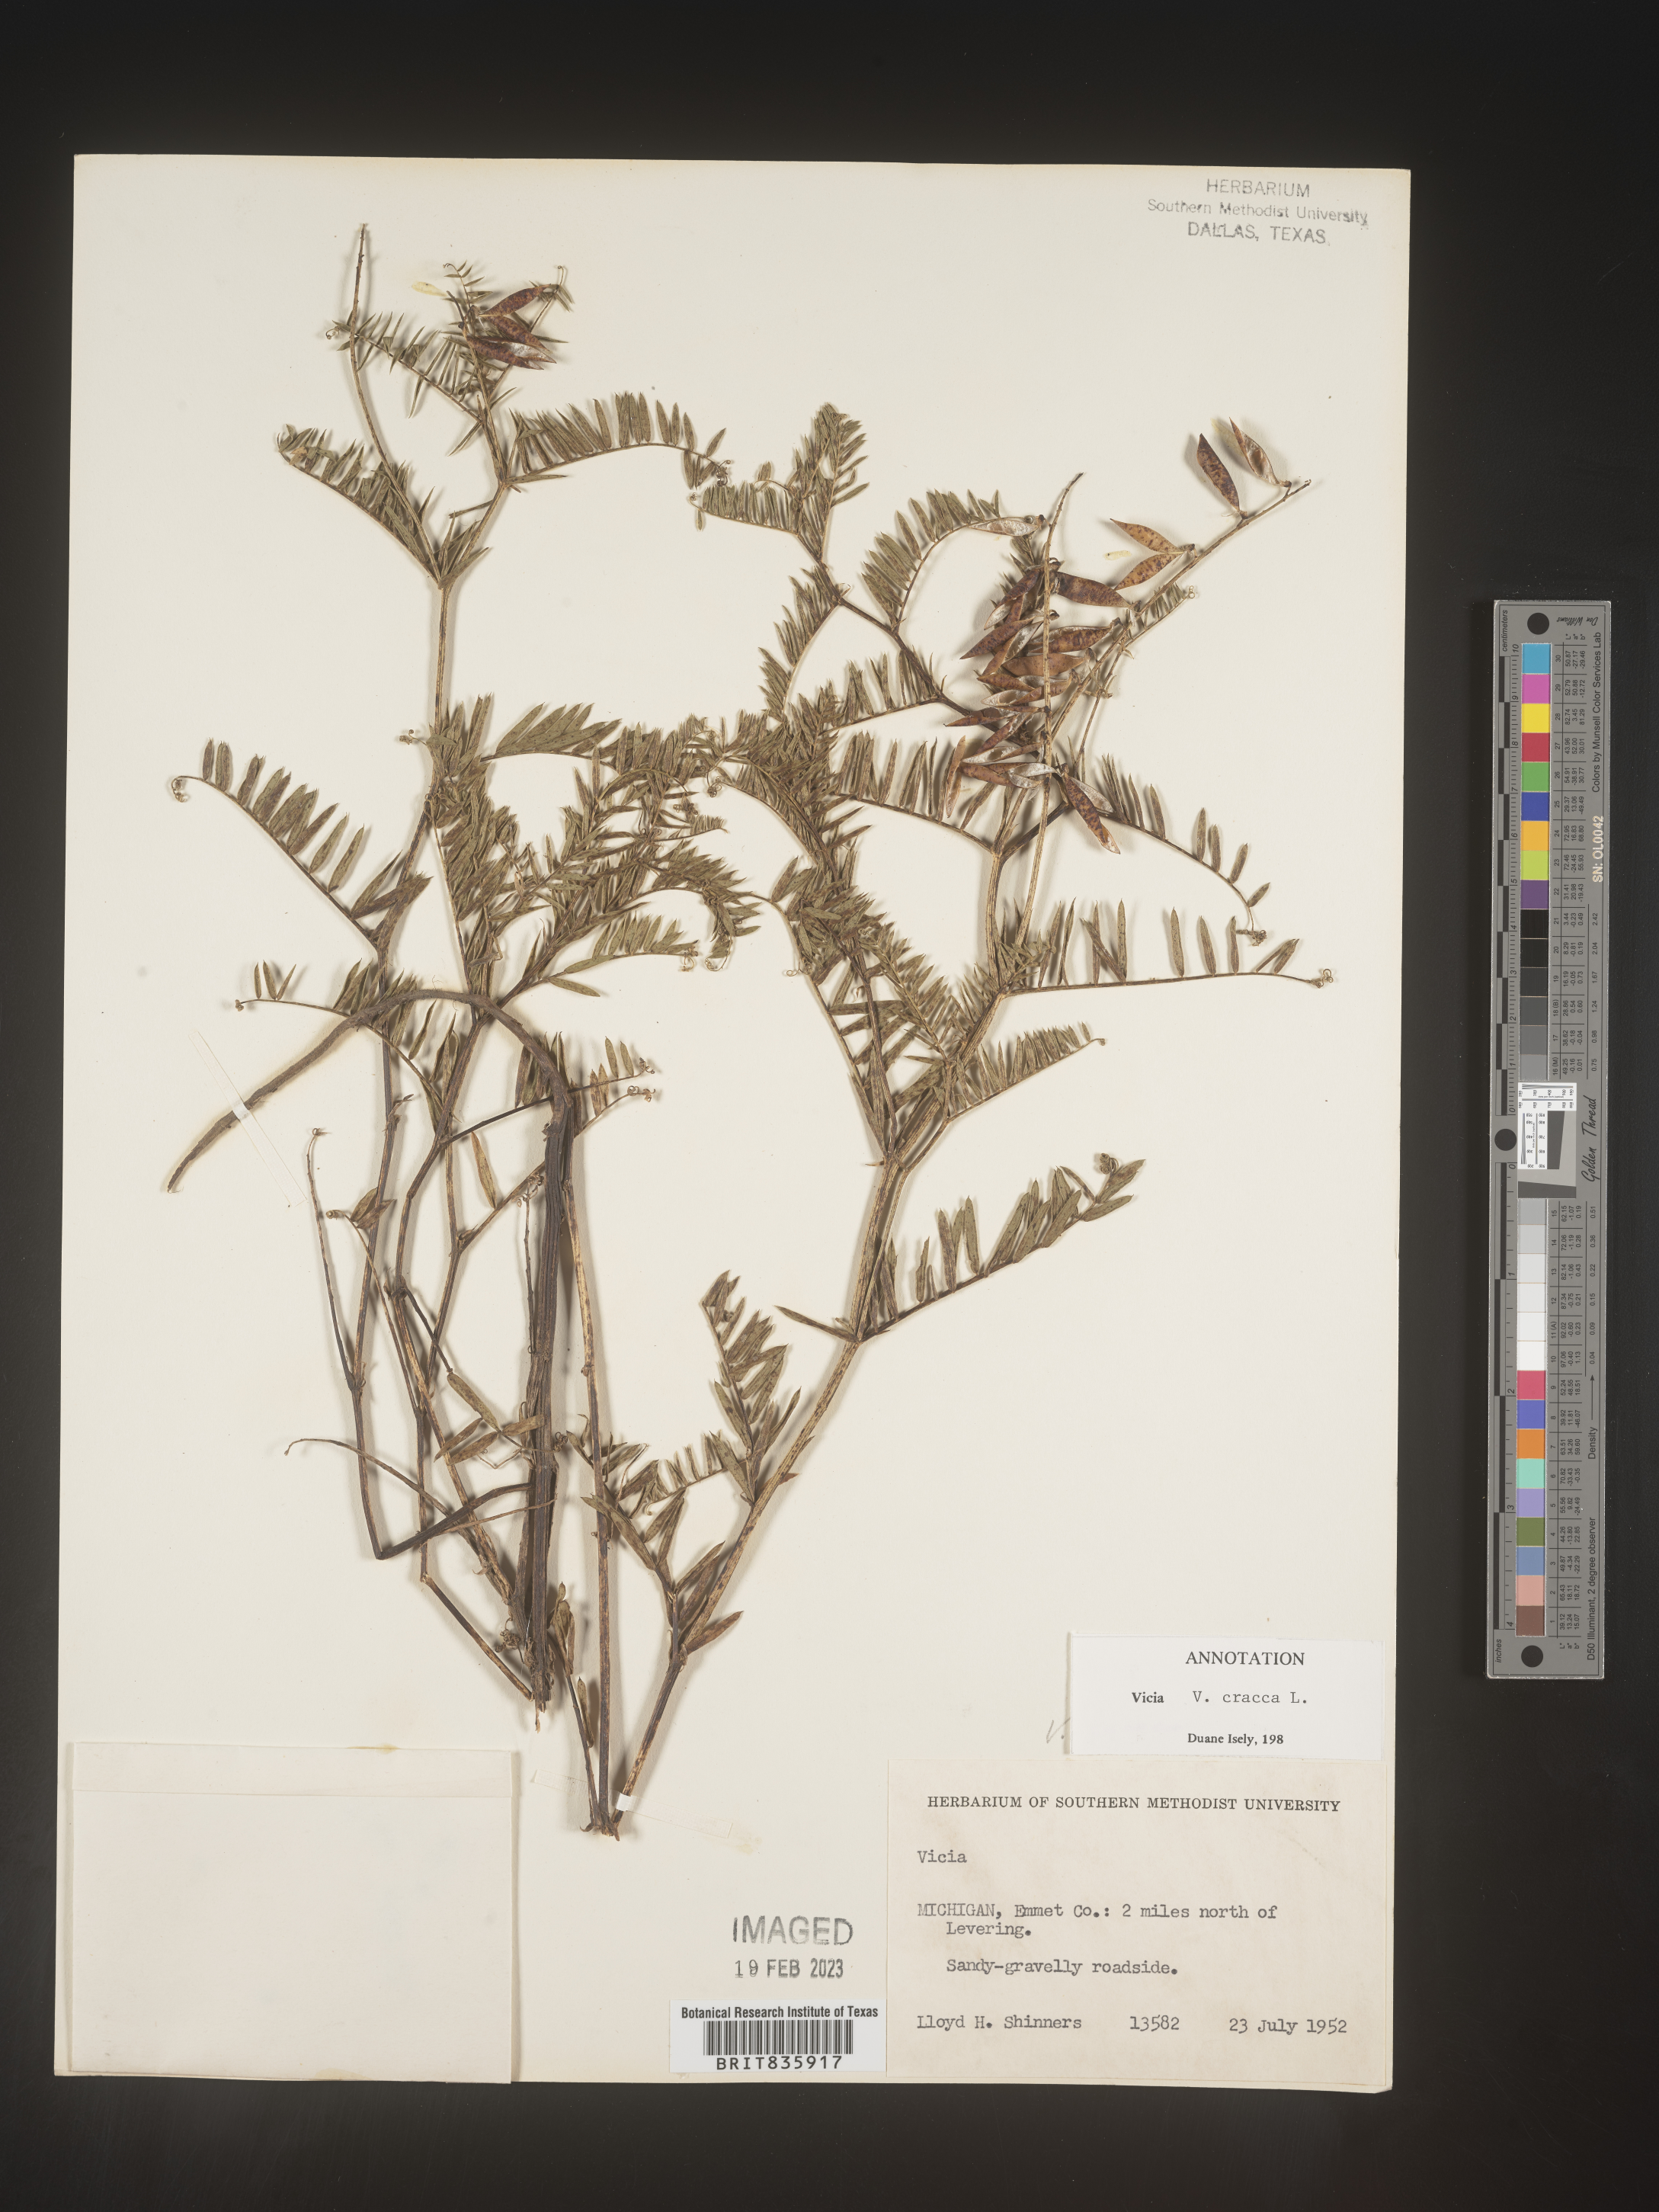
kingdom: Plantae
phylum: Tracheophyta
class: Magnoliopsida
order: Fabales
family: Fabaceae
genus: Vicia
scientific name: Vicia cracca
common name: Bird vetch
